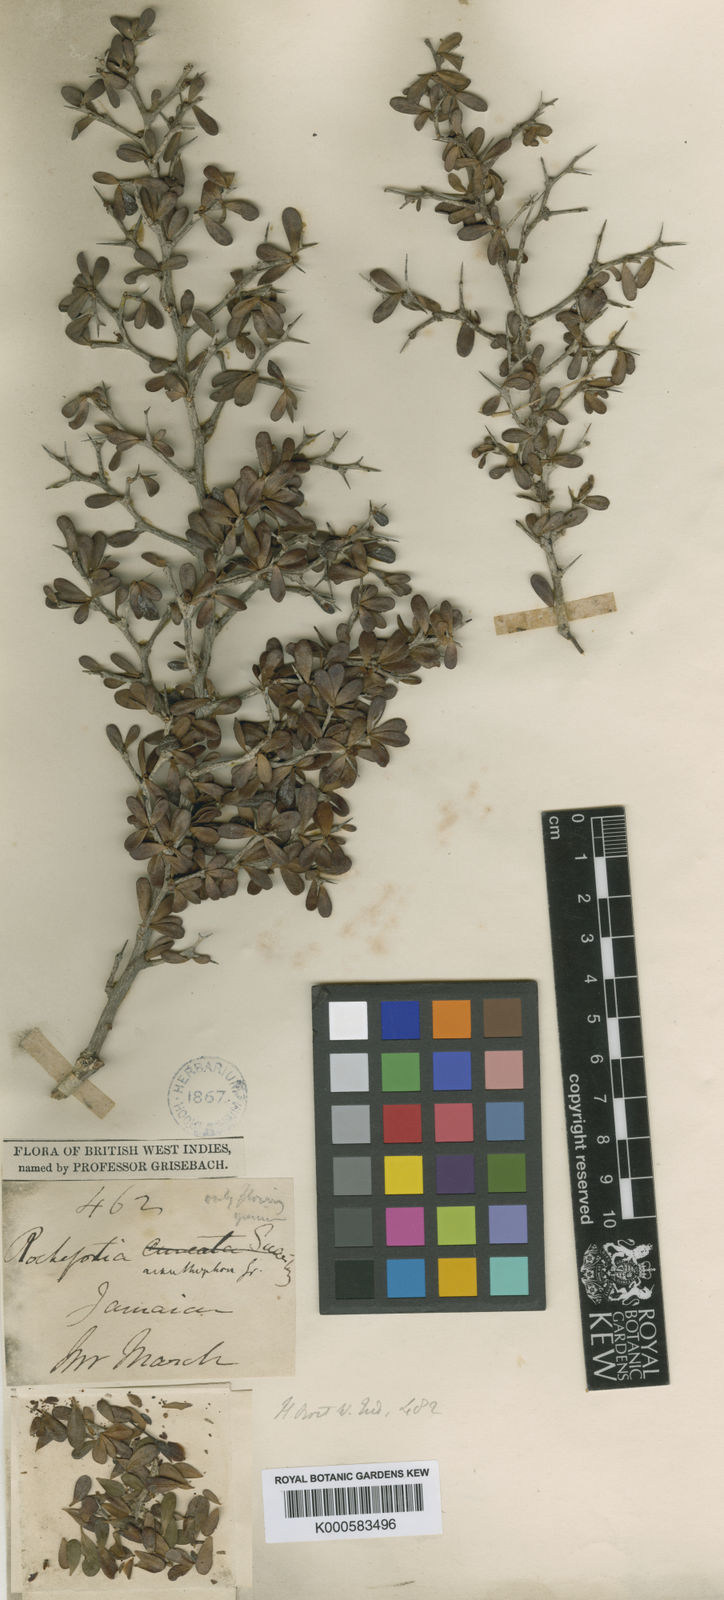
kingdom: Plantae
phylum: Tracheophyta
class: Magnoliopsida
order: Boraginales
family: Ehretiaceae
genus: Rochefortia
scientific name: Rochefortia acanthophora
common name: Greenheart ebony
